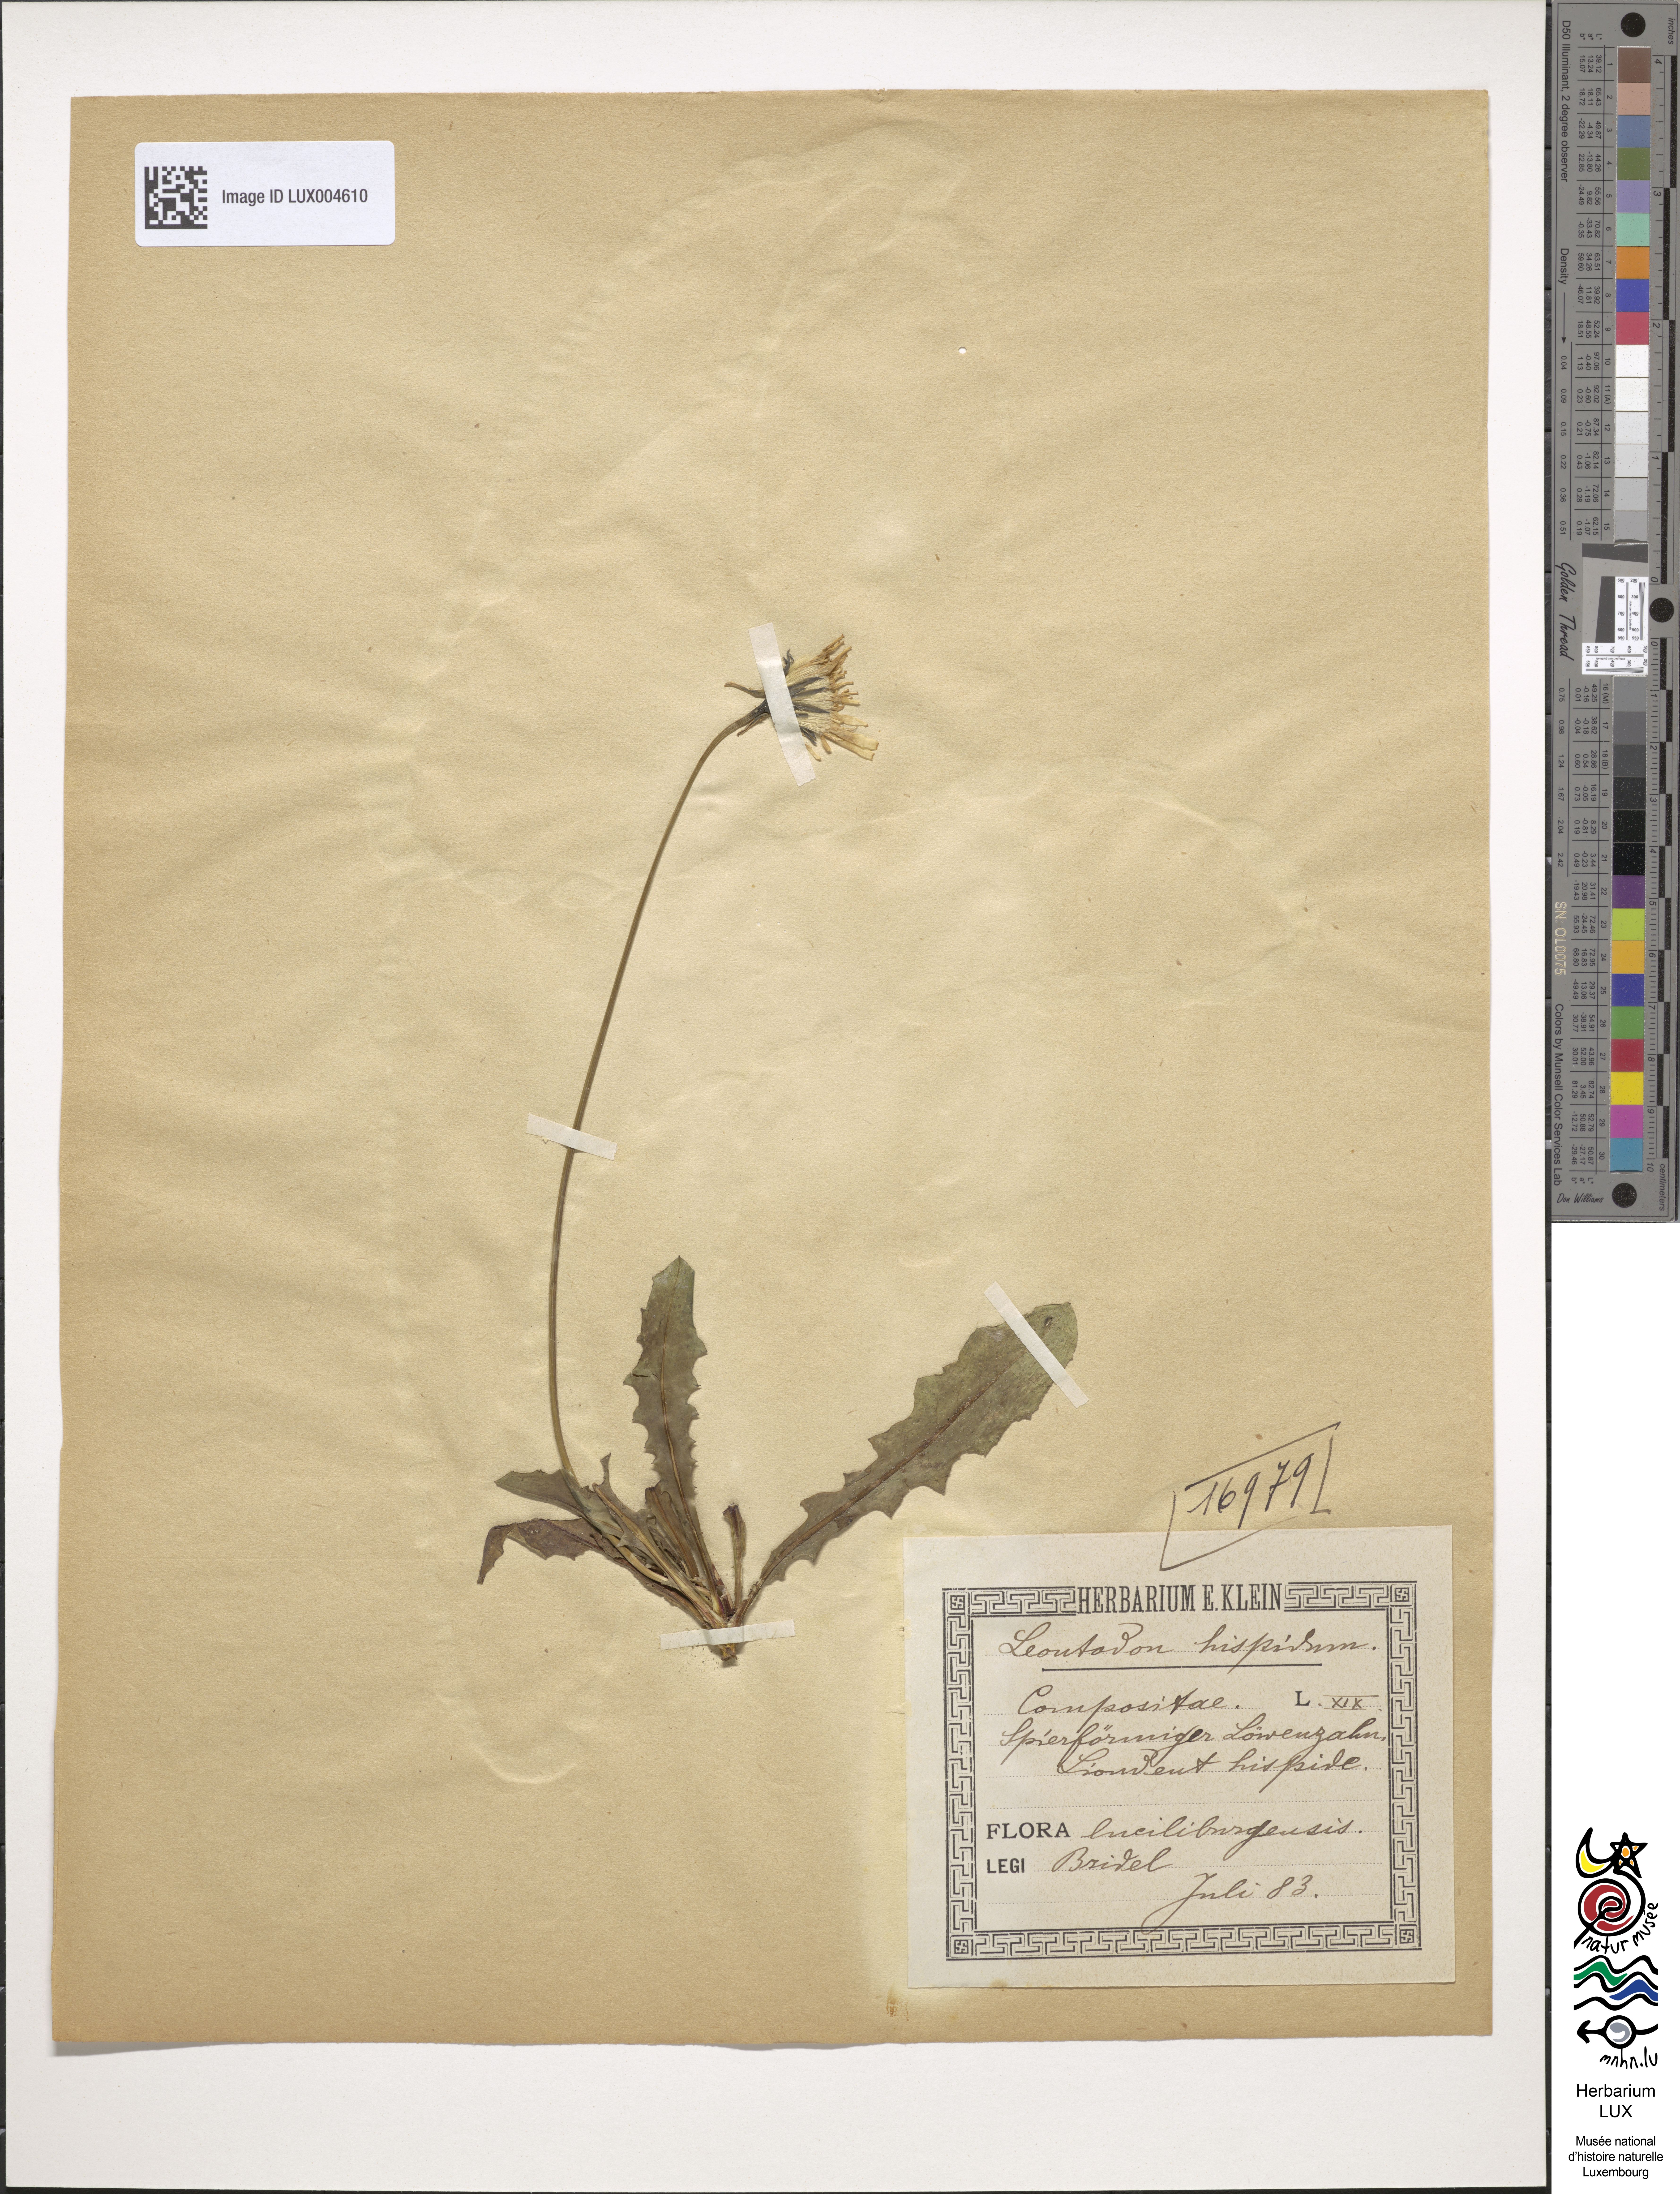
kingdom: Plantae
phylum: Tracheophyta
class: Magnoliopsida
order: Asterales
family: Asteraceae
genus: Leontodon
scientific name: Leontodon hispidus
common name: Rough hawkbit
